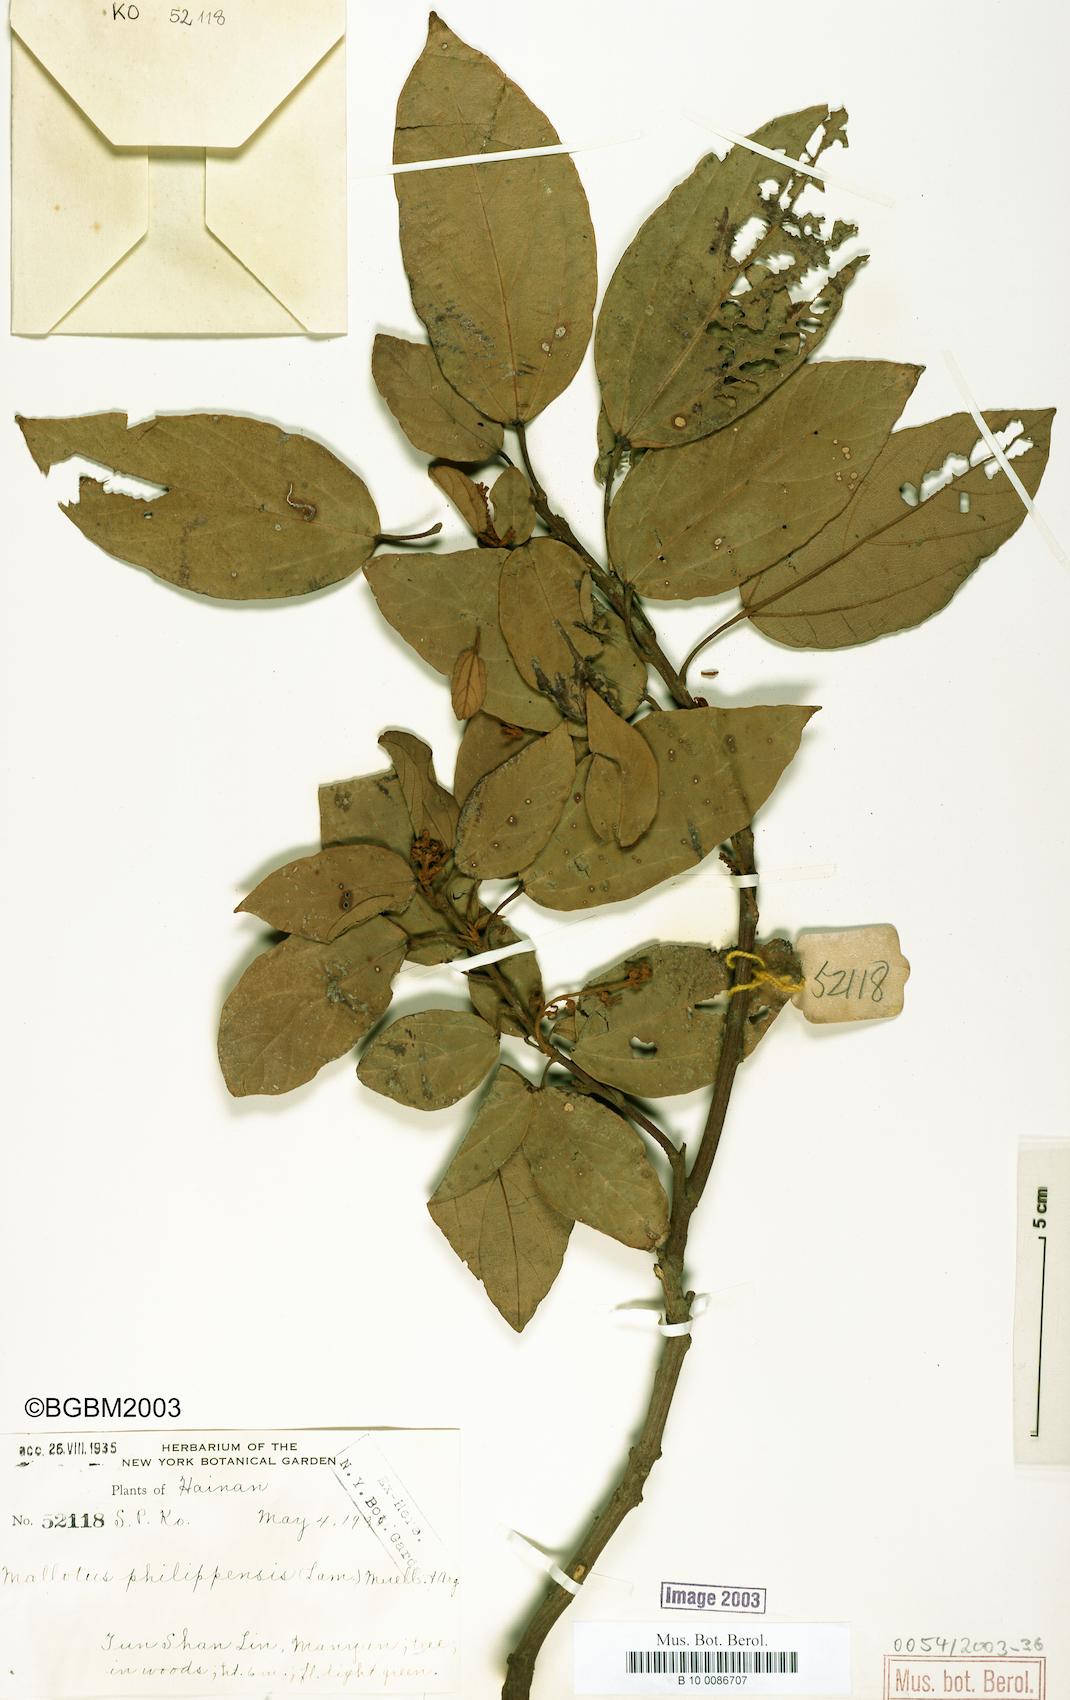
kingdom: Plantae
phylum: Tracheophyta
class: Magnoliopsida
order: Malpighiales
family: Euphorbiaceae
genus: Mallotus
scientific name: Mallotus philippensis
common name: Kamala tree
